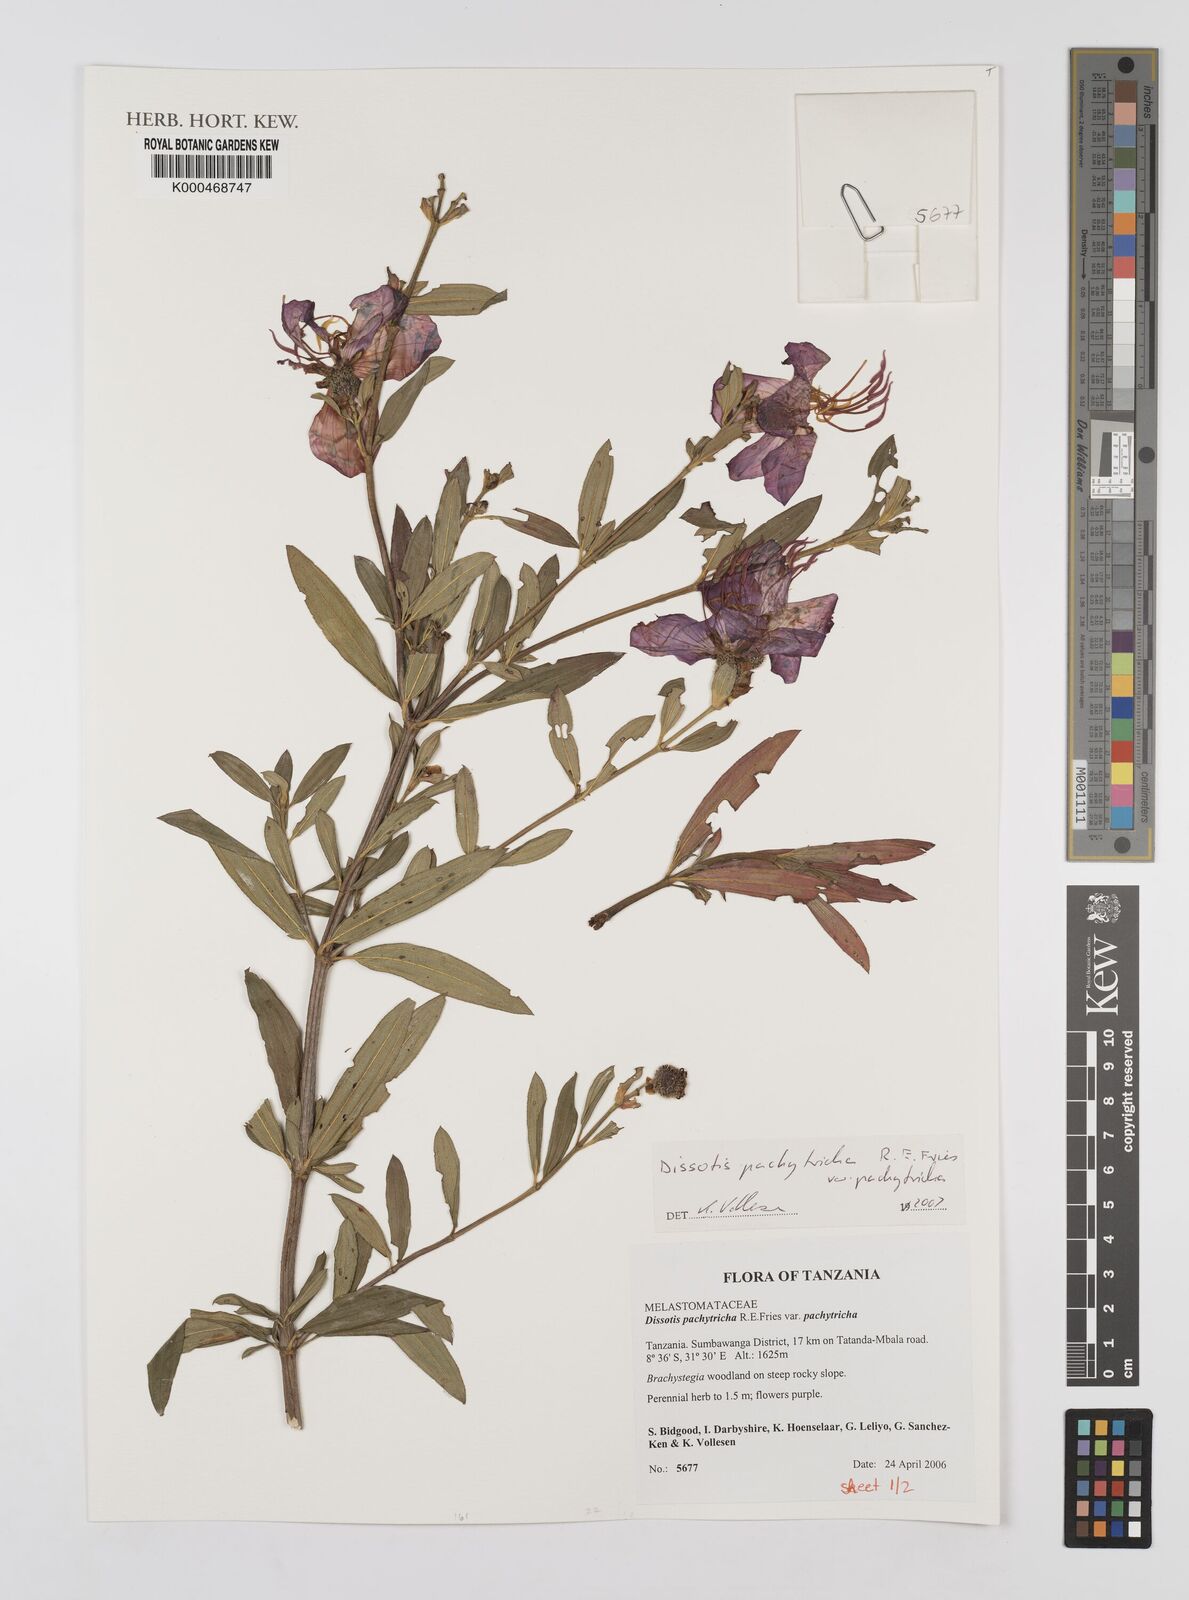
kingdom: Plantae
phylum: Tracheophyta
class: Magnoliopsida
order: Myrtales
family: Melastomataceae
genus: Dissotis
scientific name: Dissotis
